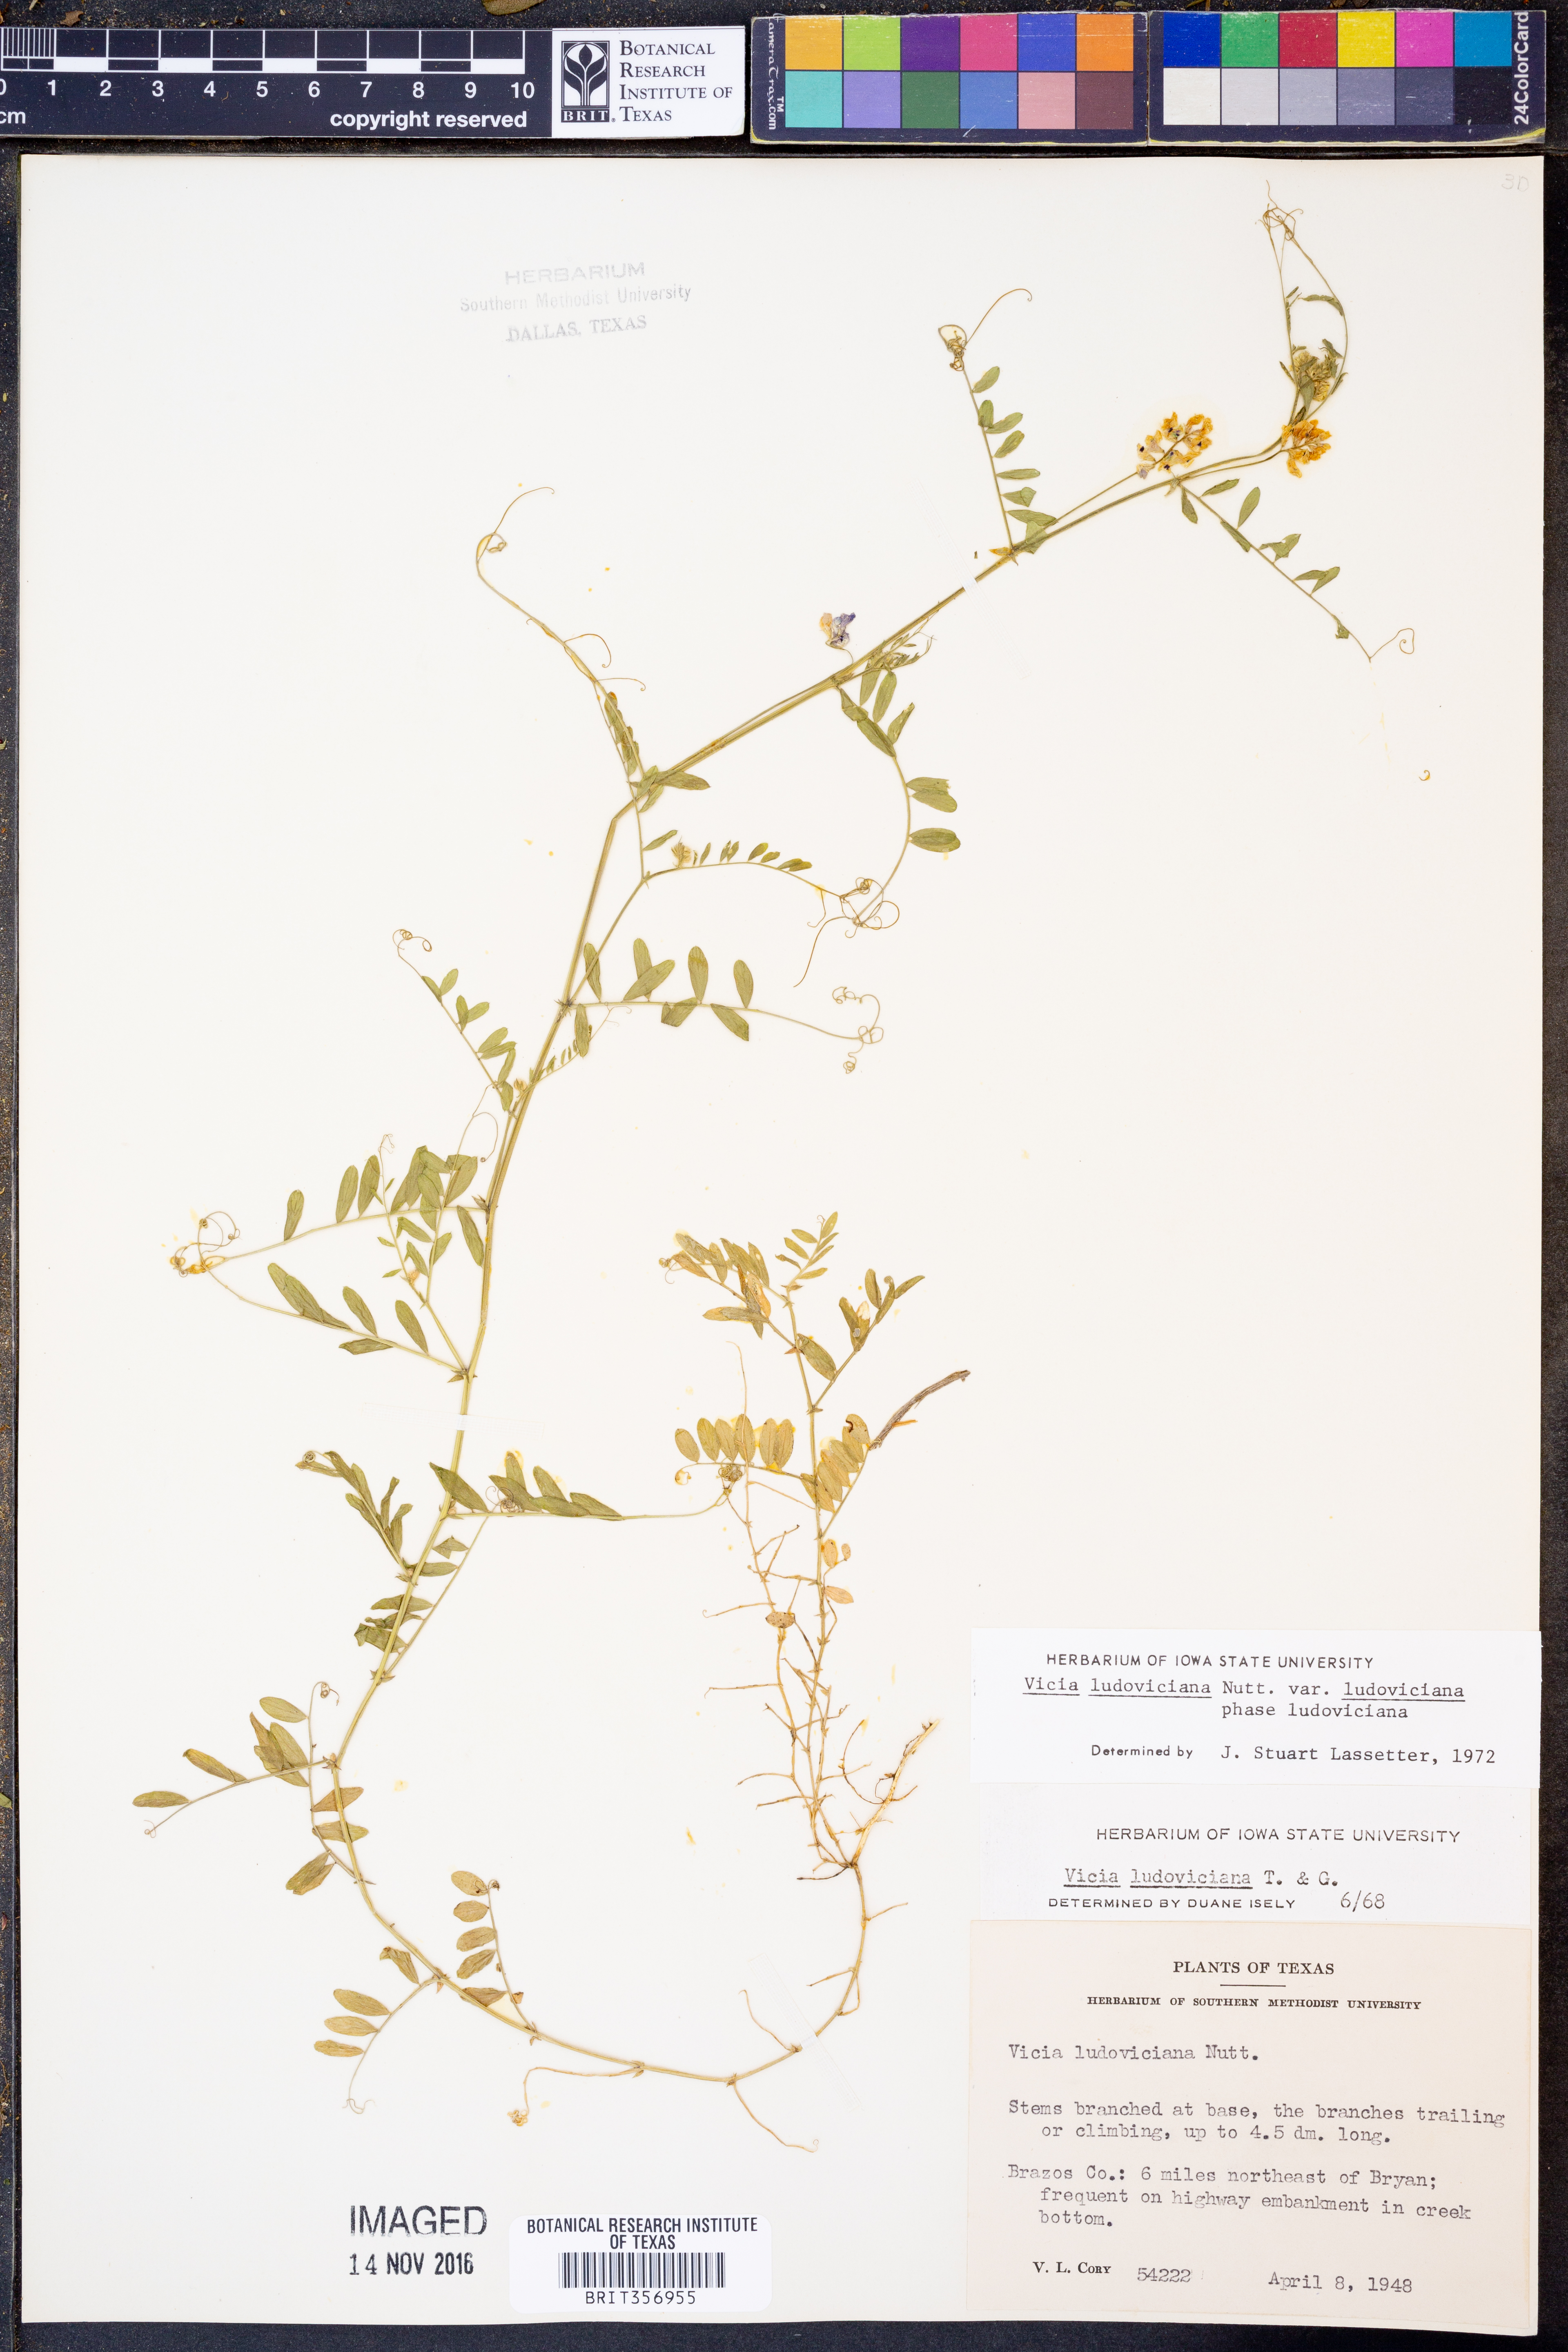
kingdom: Plantae
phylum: Tracheophyta
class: Magnoliopsida
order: Fabales
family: Fabaceae
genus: Vicia
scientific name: Vicia ludoviciana
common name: Louisiana vetch
